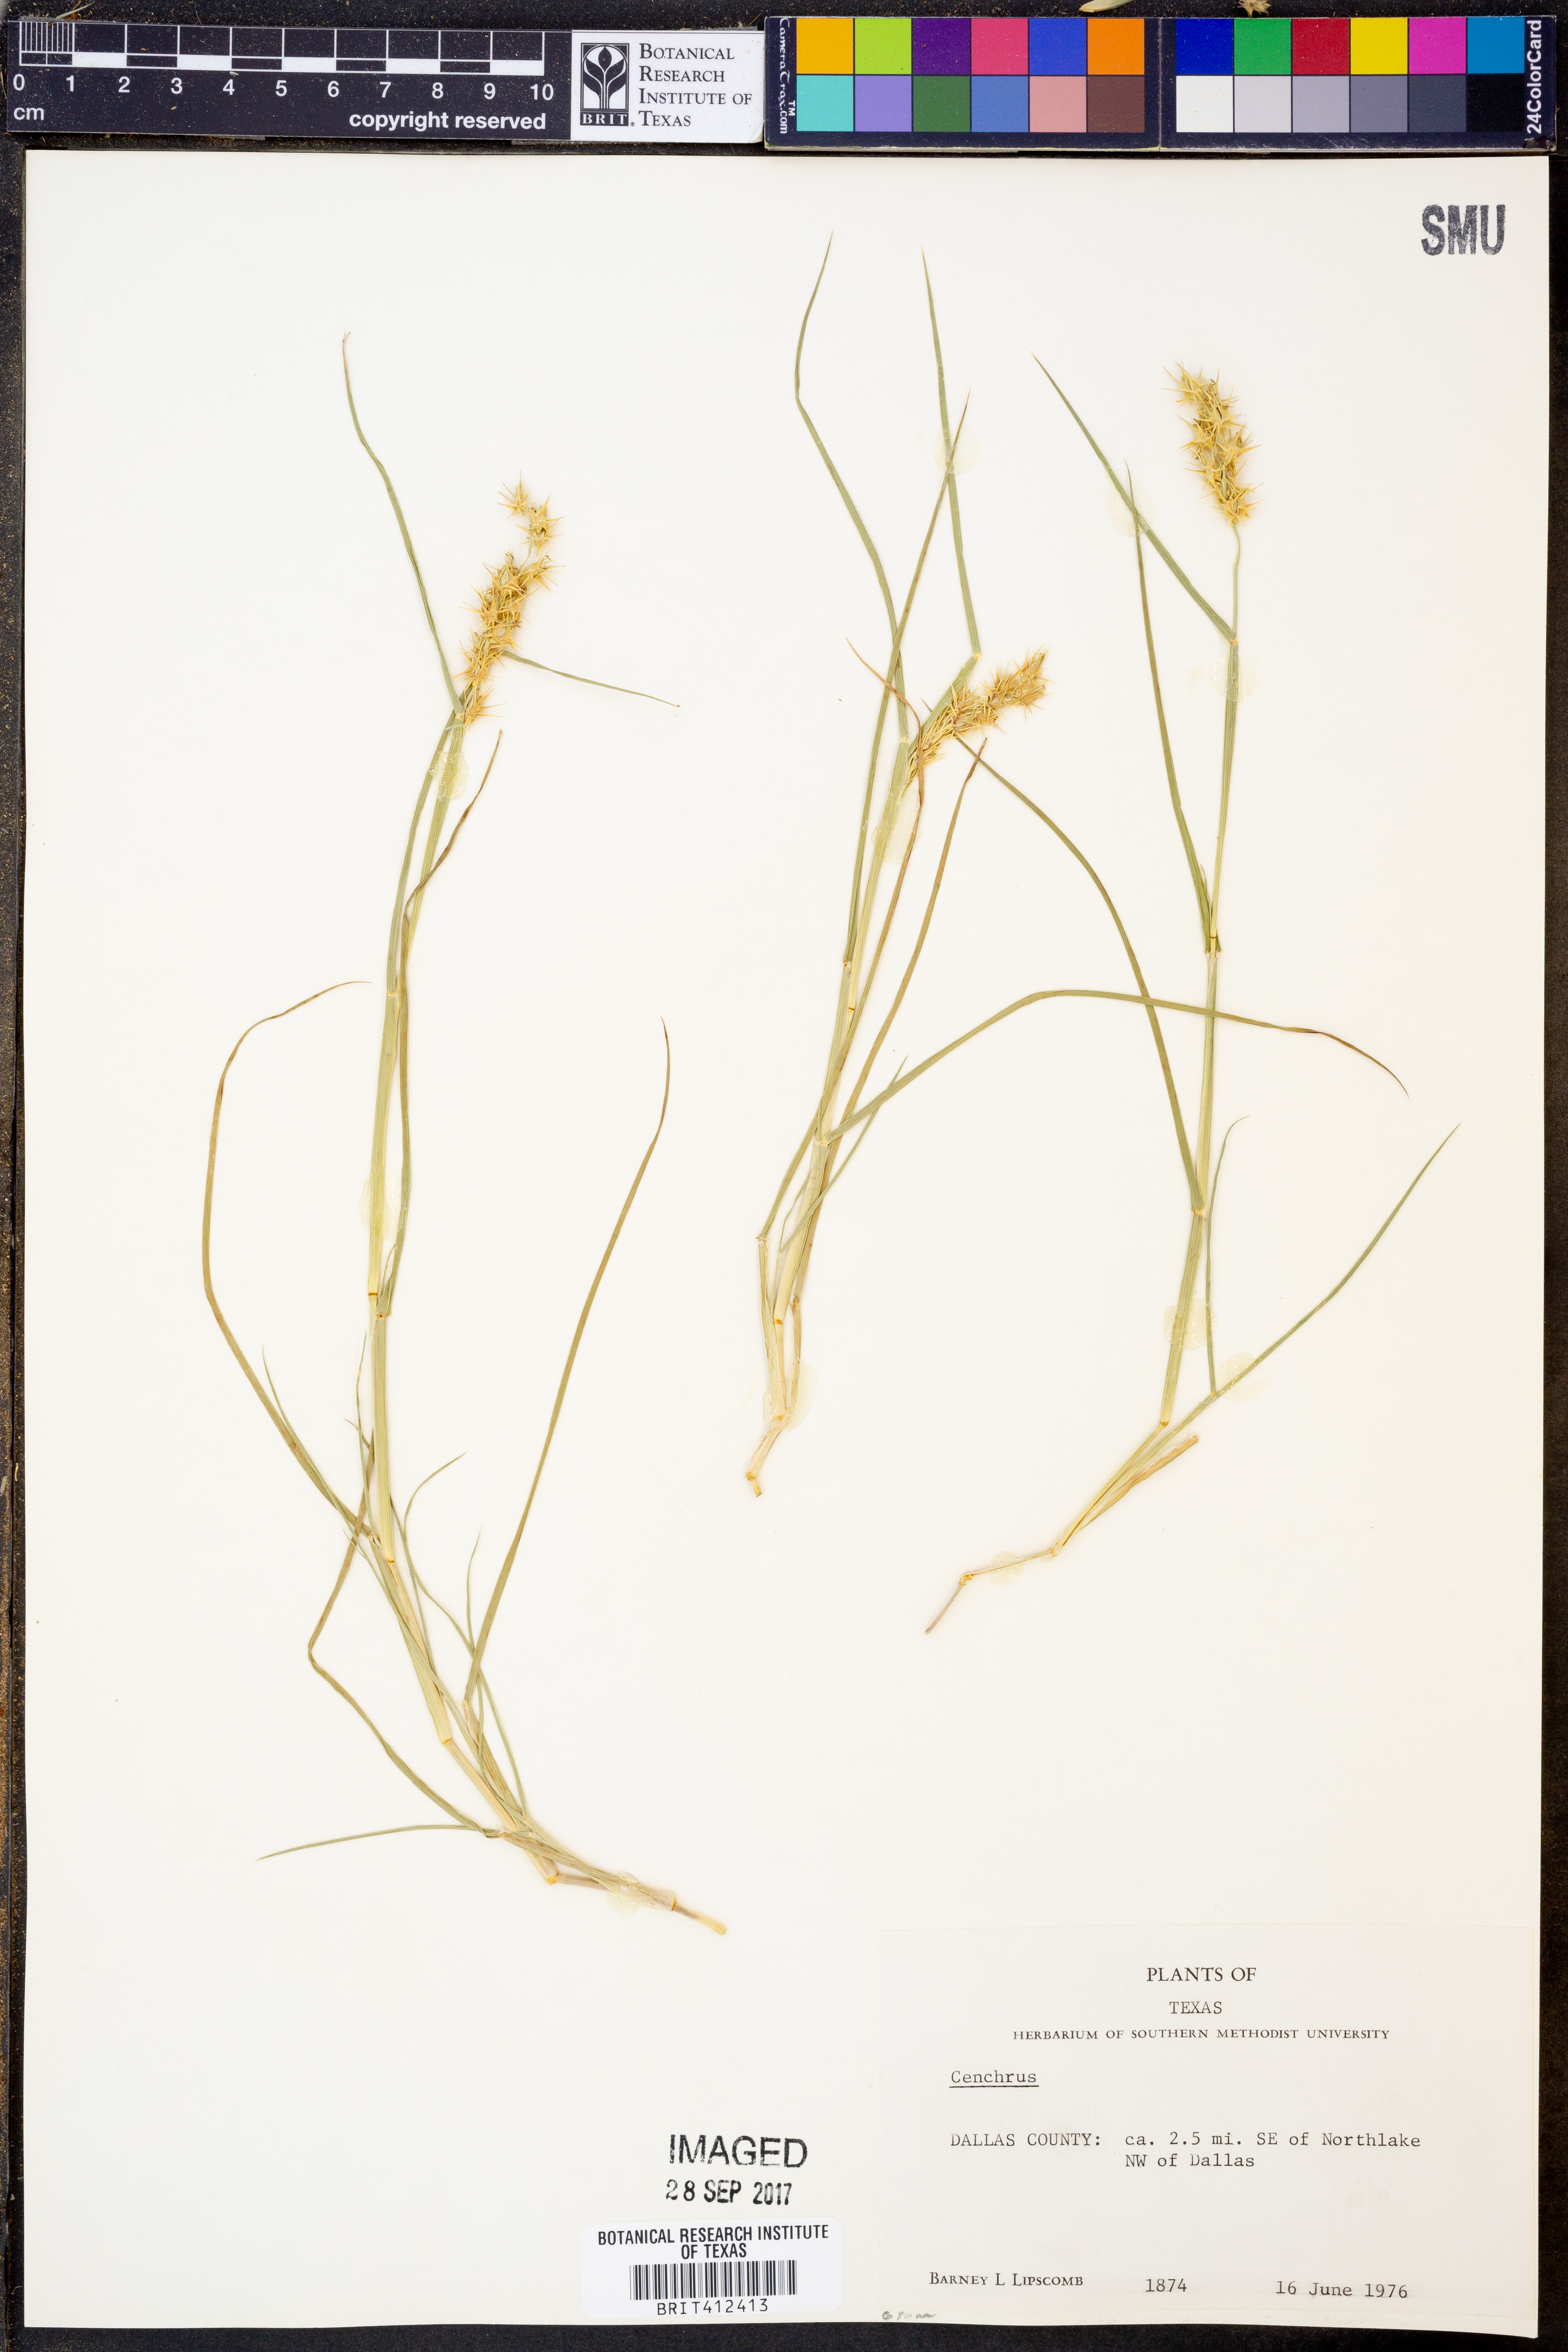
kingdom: Plantae
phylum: Tracheophyta
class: Liliopsida
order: Poales
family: Poaceae
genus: Cenchrus
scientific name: Cenchrus
